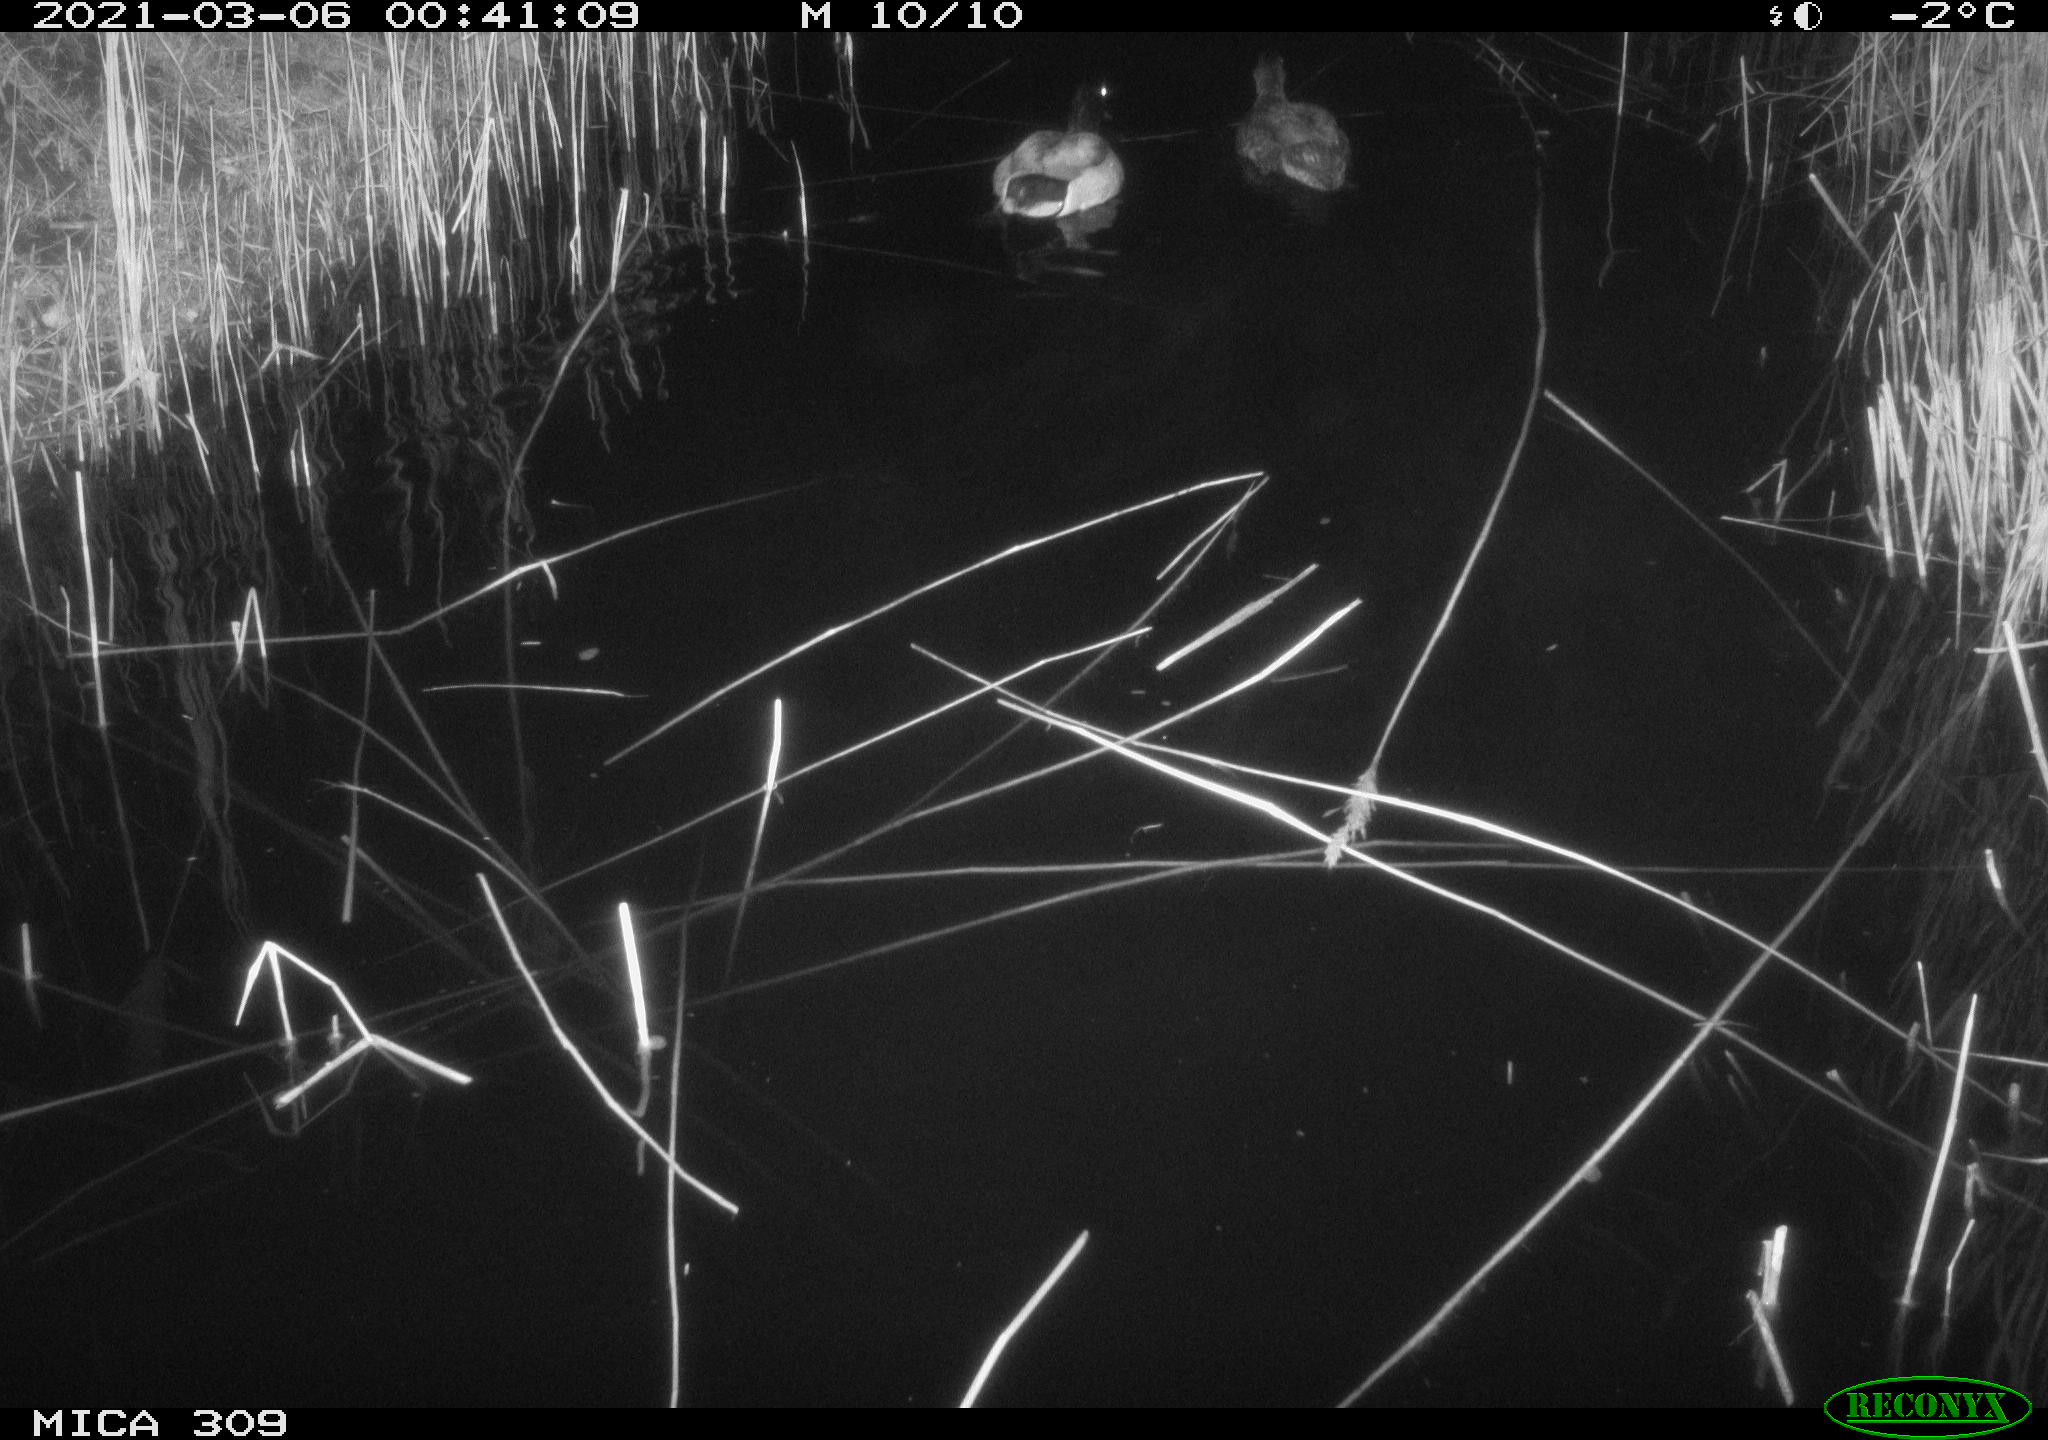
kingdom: Animalia
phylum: Chordata
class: Aves
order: Anseriformes
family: Anatidae
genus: Anas
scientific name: Anas platyrhynchos
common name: Mallard
